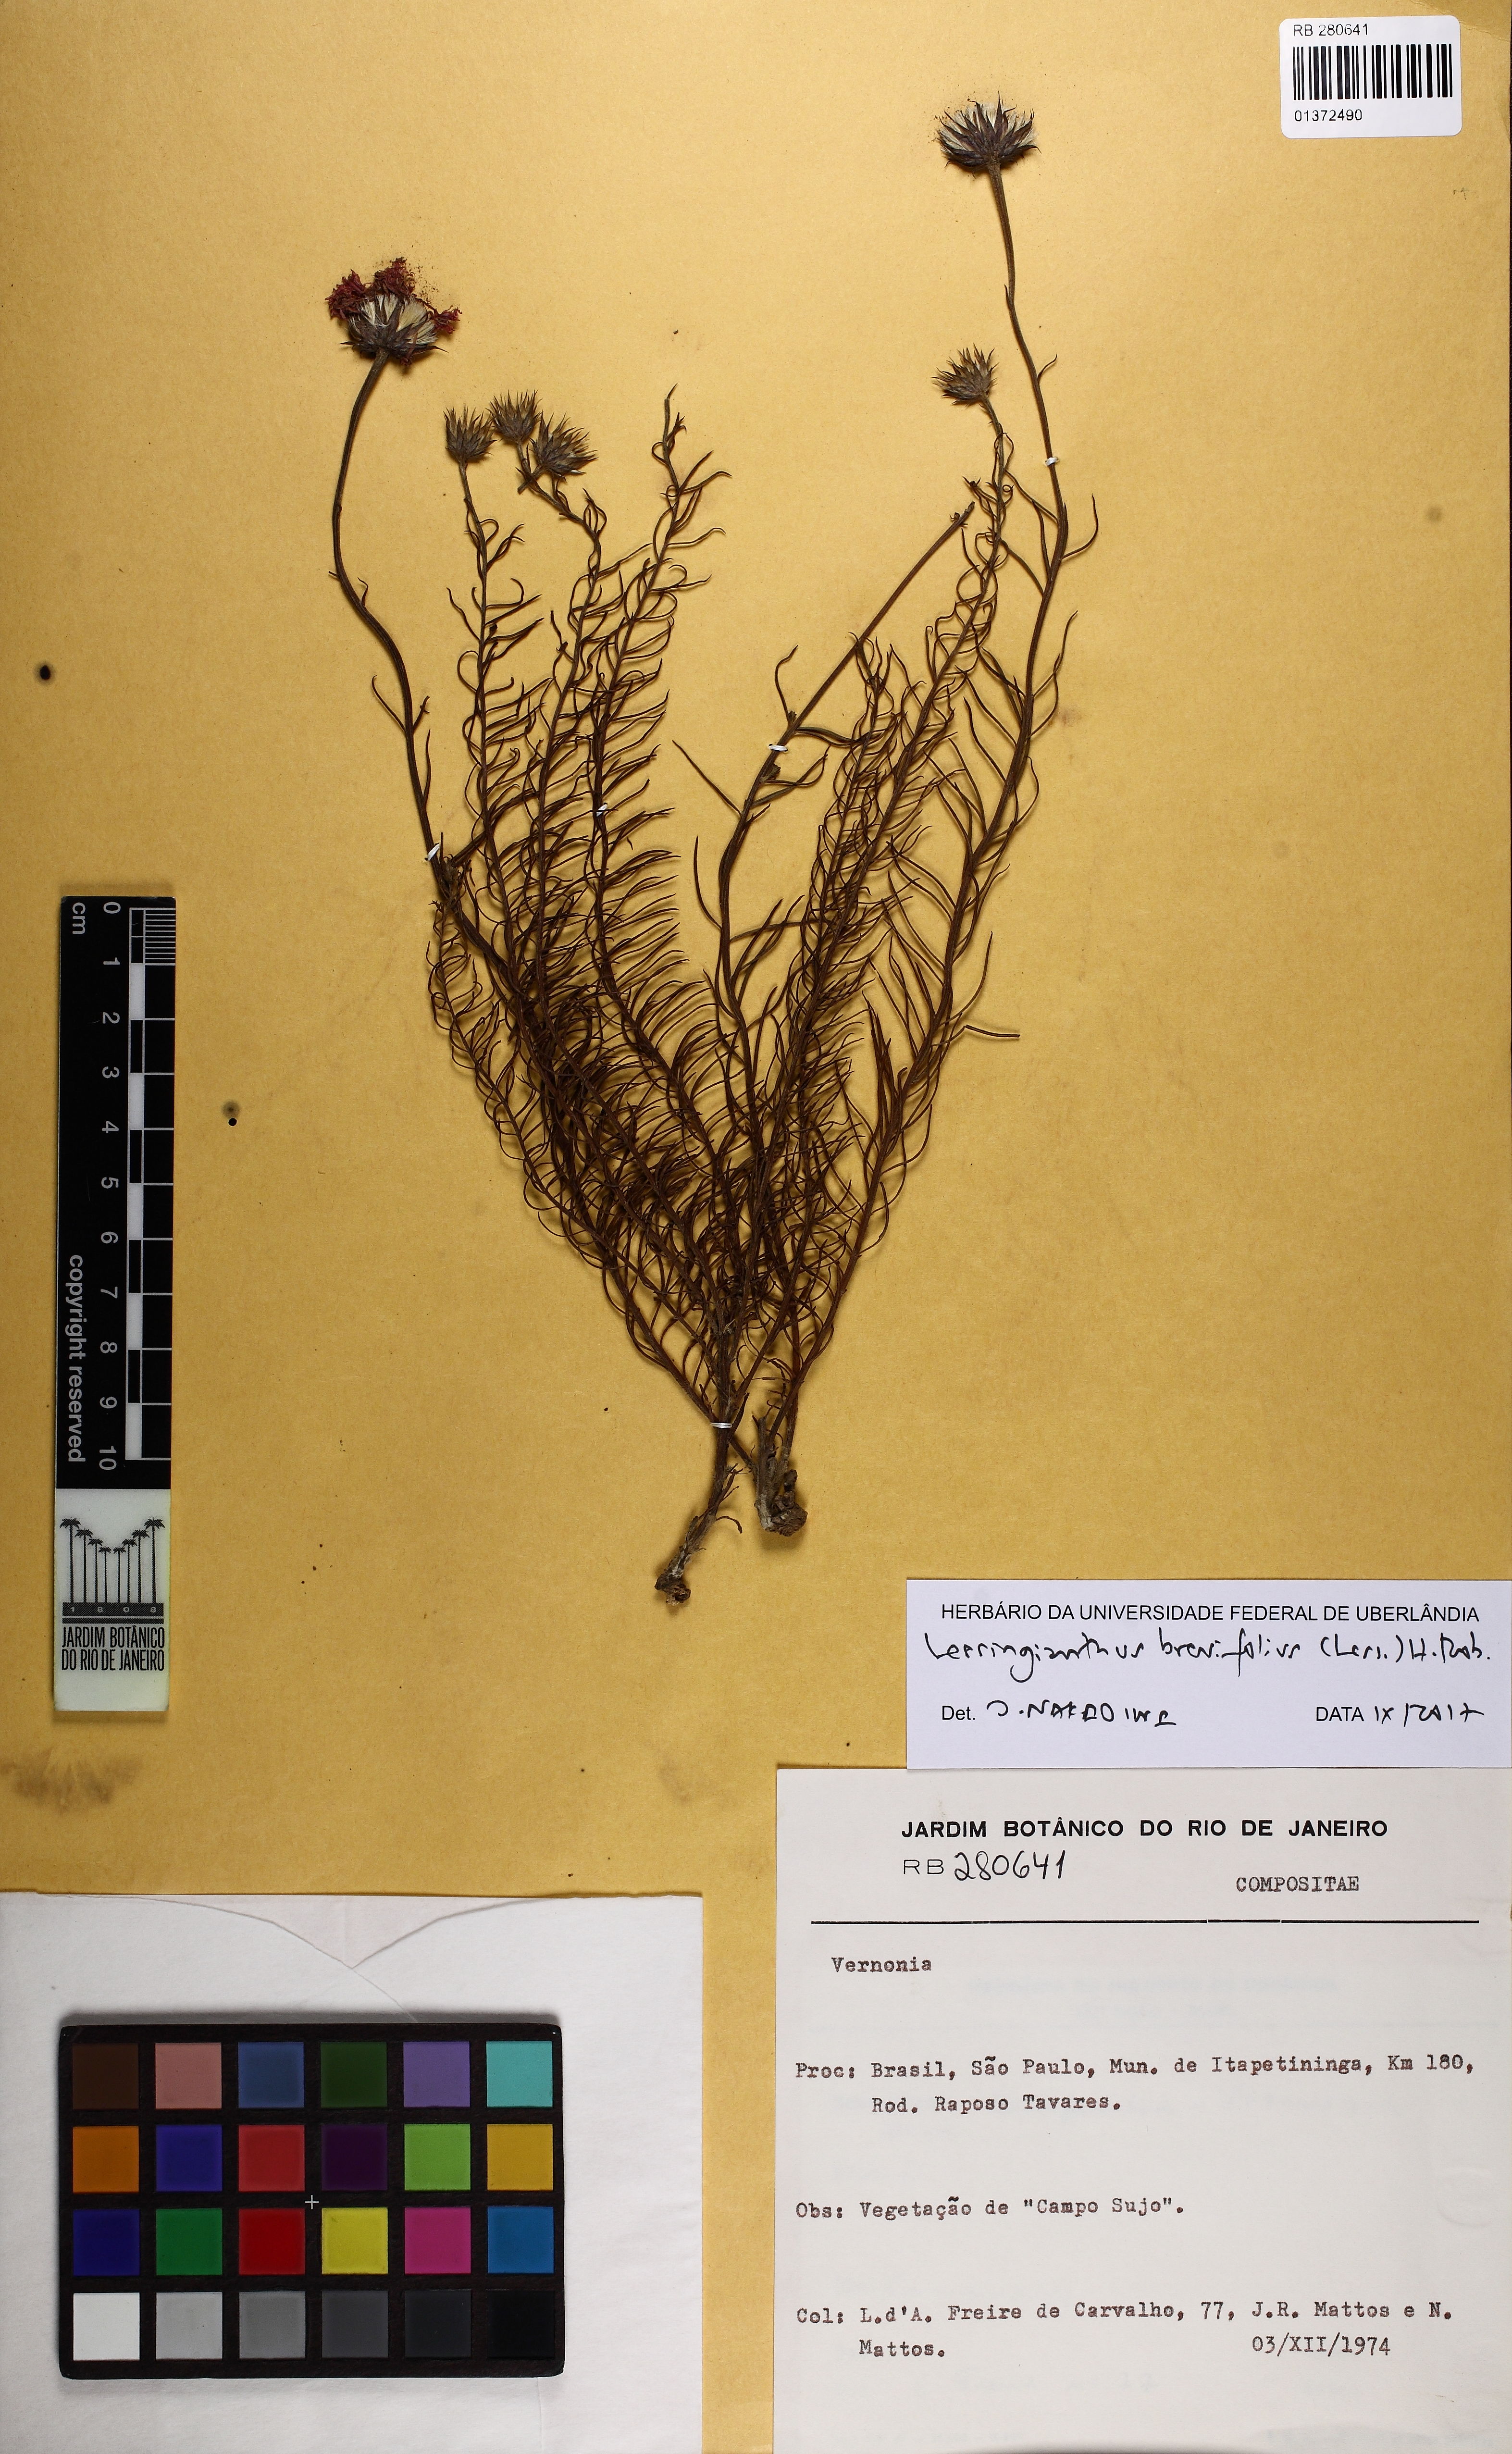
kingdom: Plantae
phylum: Tracheophyta
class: Magnoliopsida
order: Asterales
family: Asteraceae
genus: Lessingianthus
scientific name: Lessingianthus brevifolius
